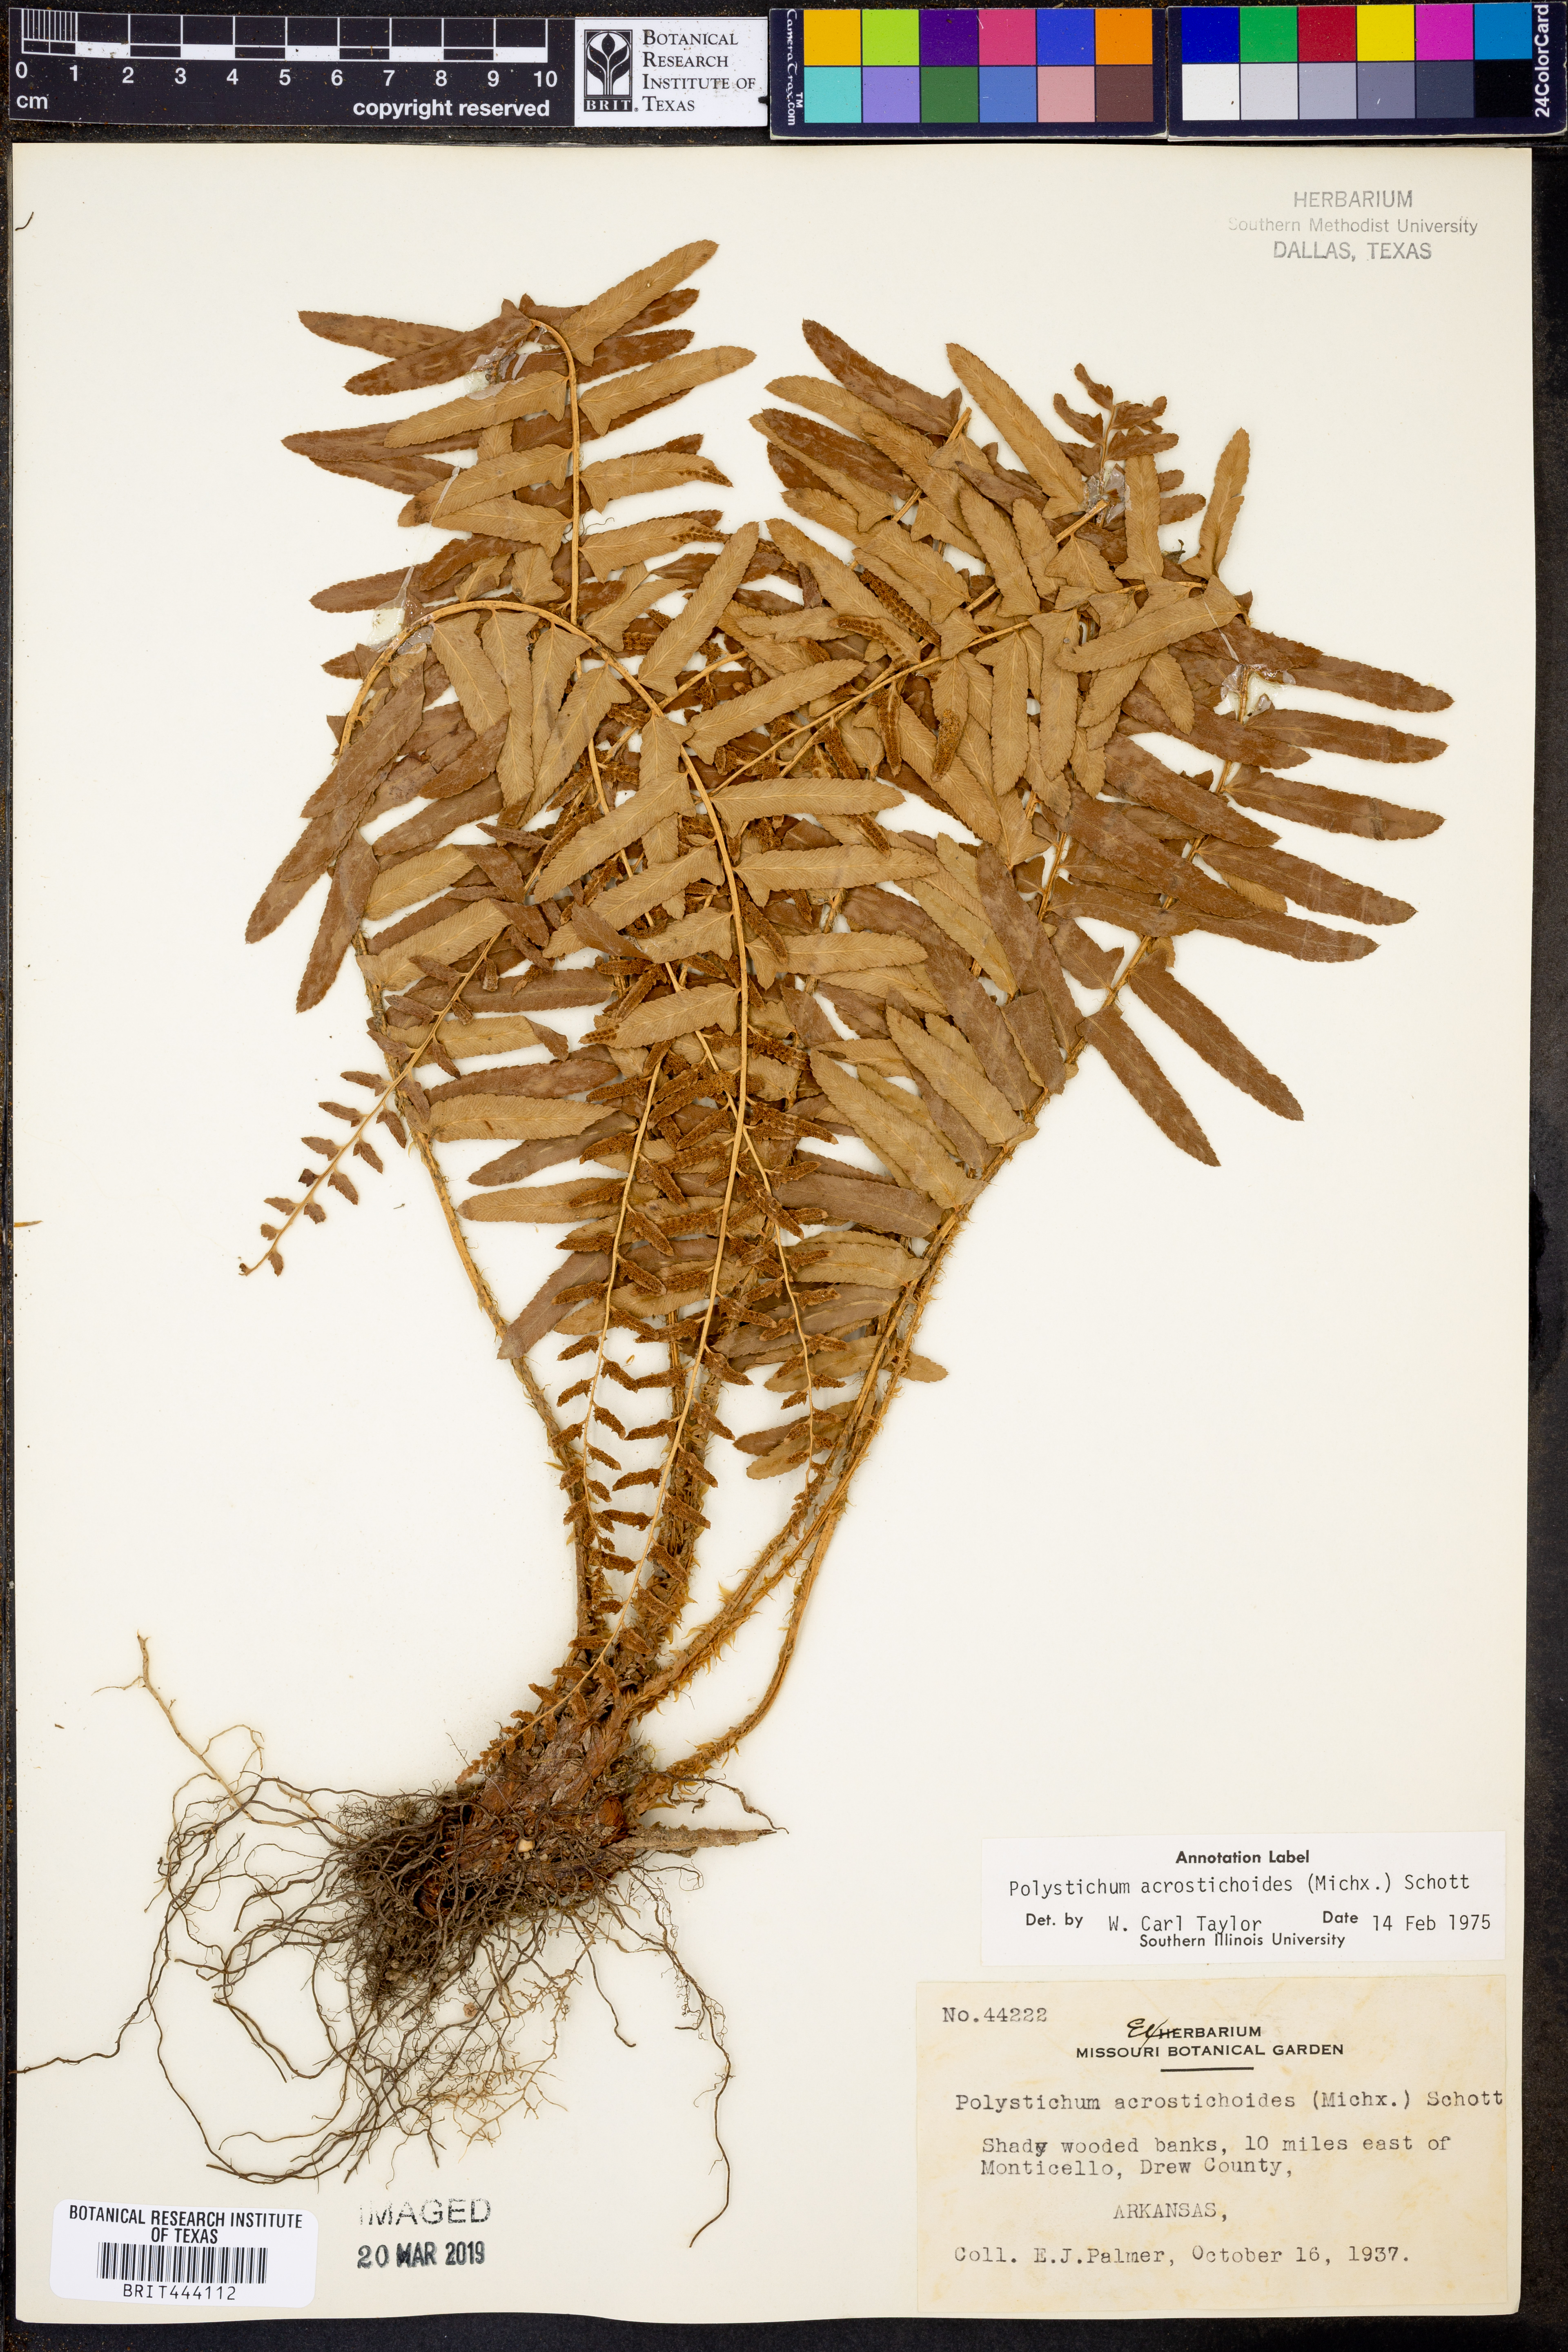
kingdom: Plantae
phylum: Tracheophyta
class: Polypodiopsida
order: Polypodiales
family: Dryopteridaceae
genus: Polystichum
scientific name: Polystichum acrostichoides
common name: Christmas fern
